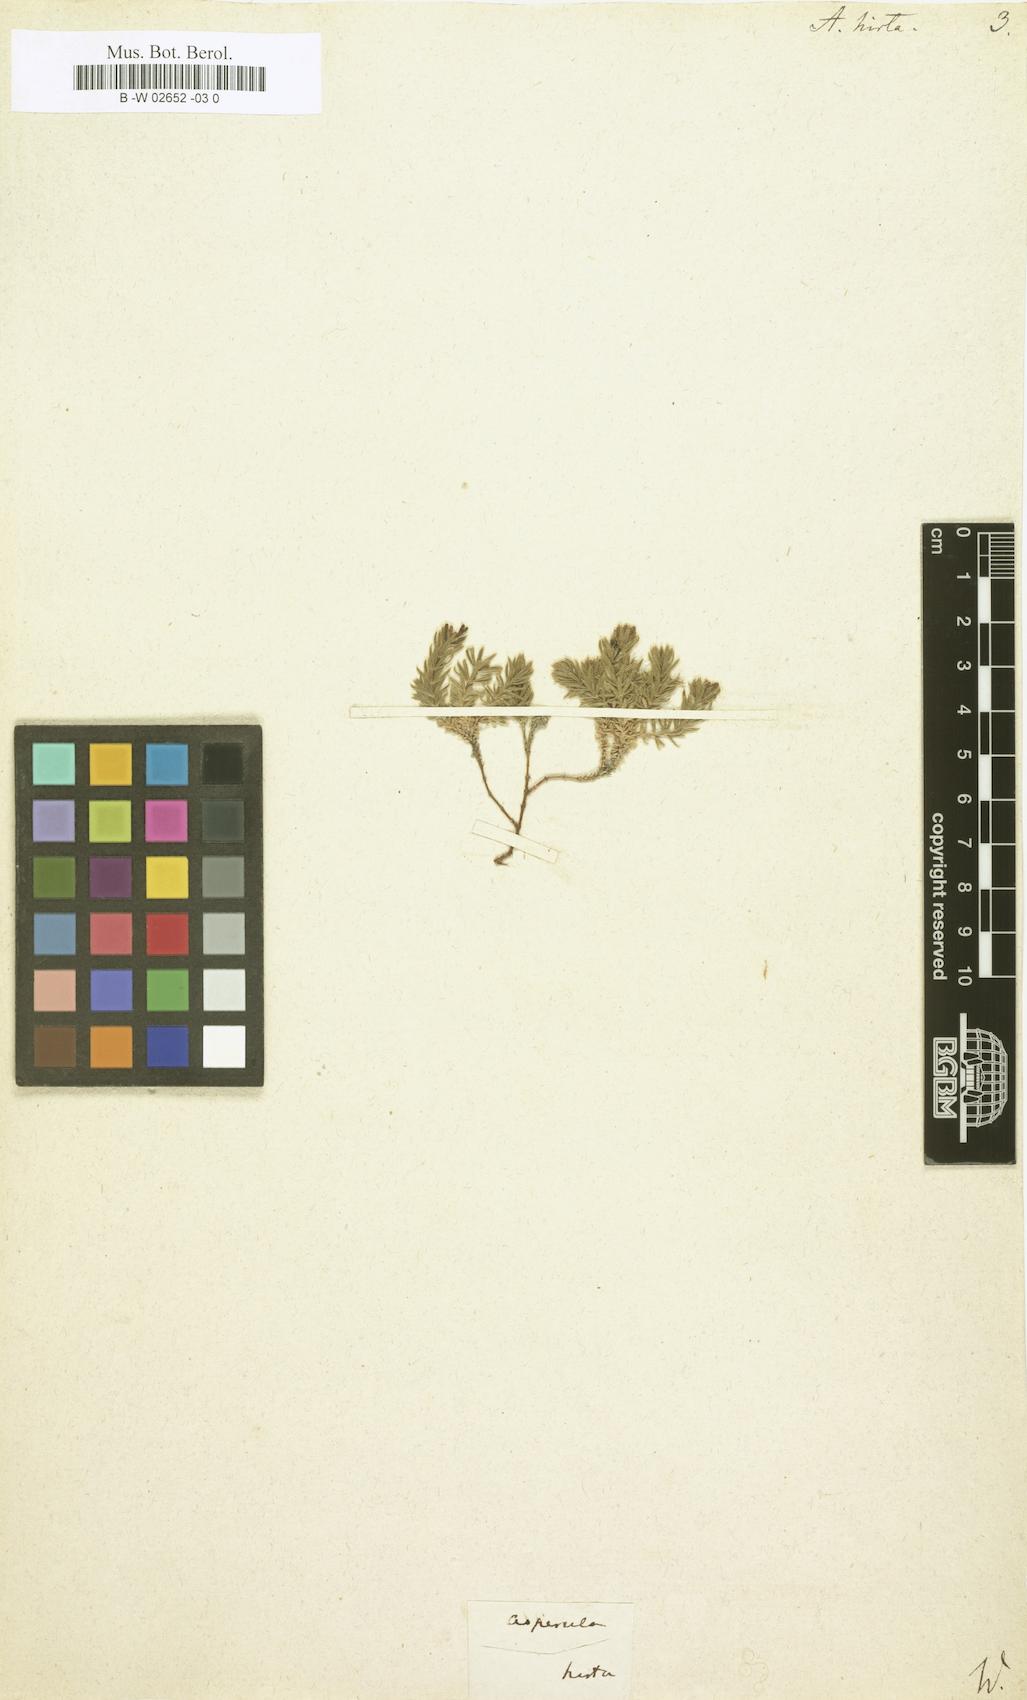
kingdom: Plantae
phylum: Tracheophyta
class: Magnoliopsida
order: Gentianales
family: Rubiaceae
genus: Hexaphylla
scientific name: Hexaphylla hirta
